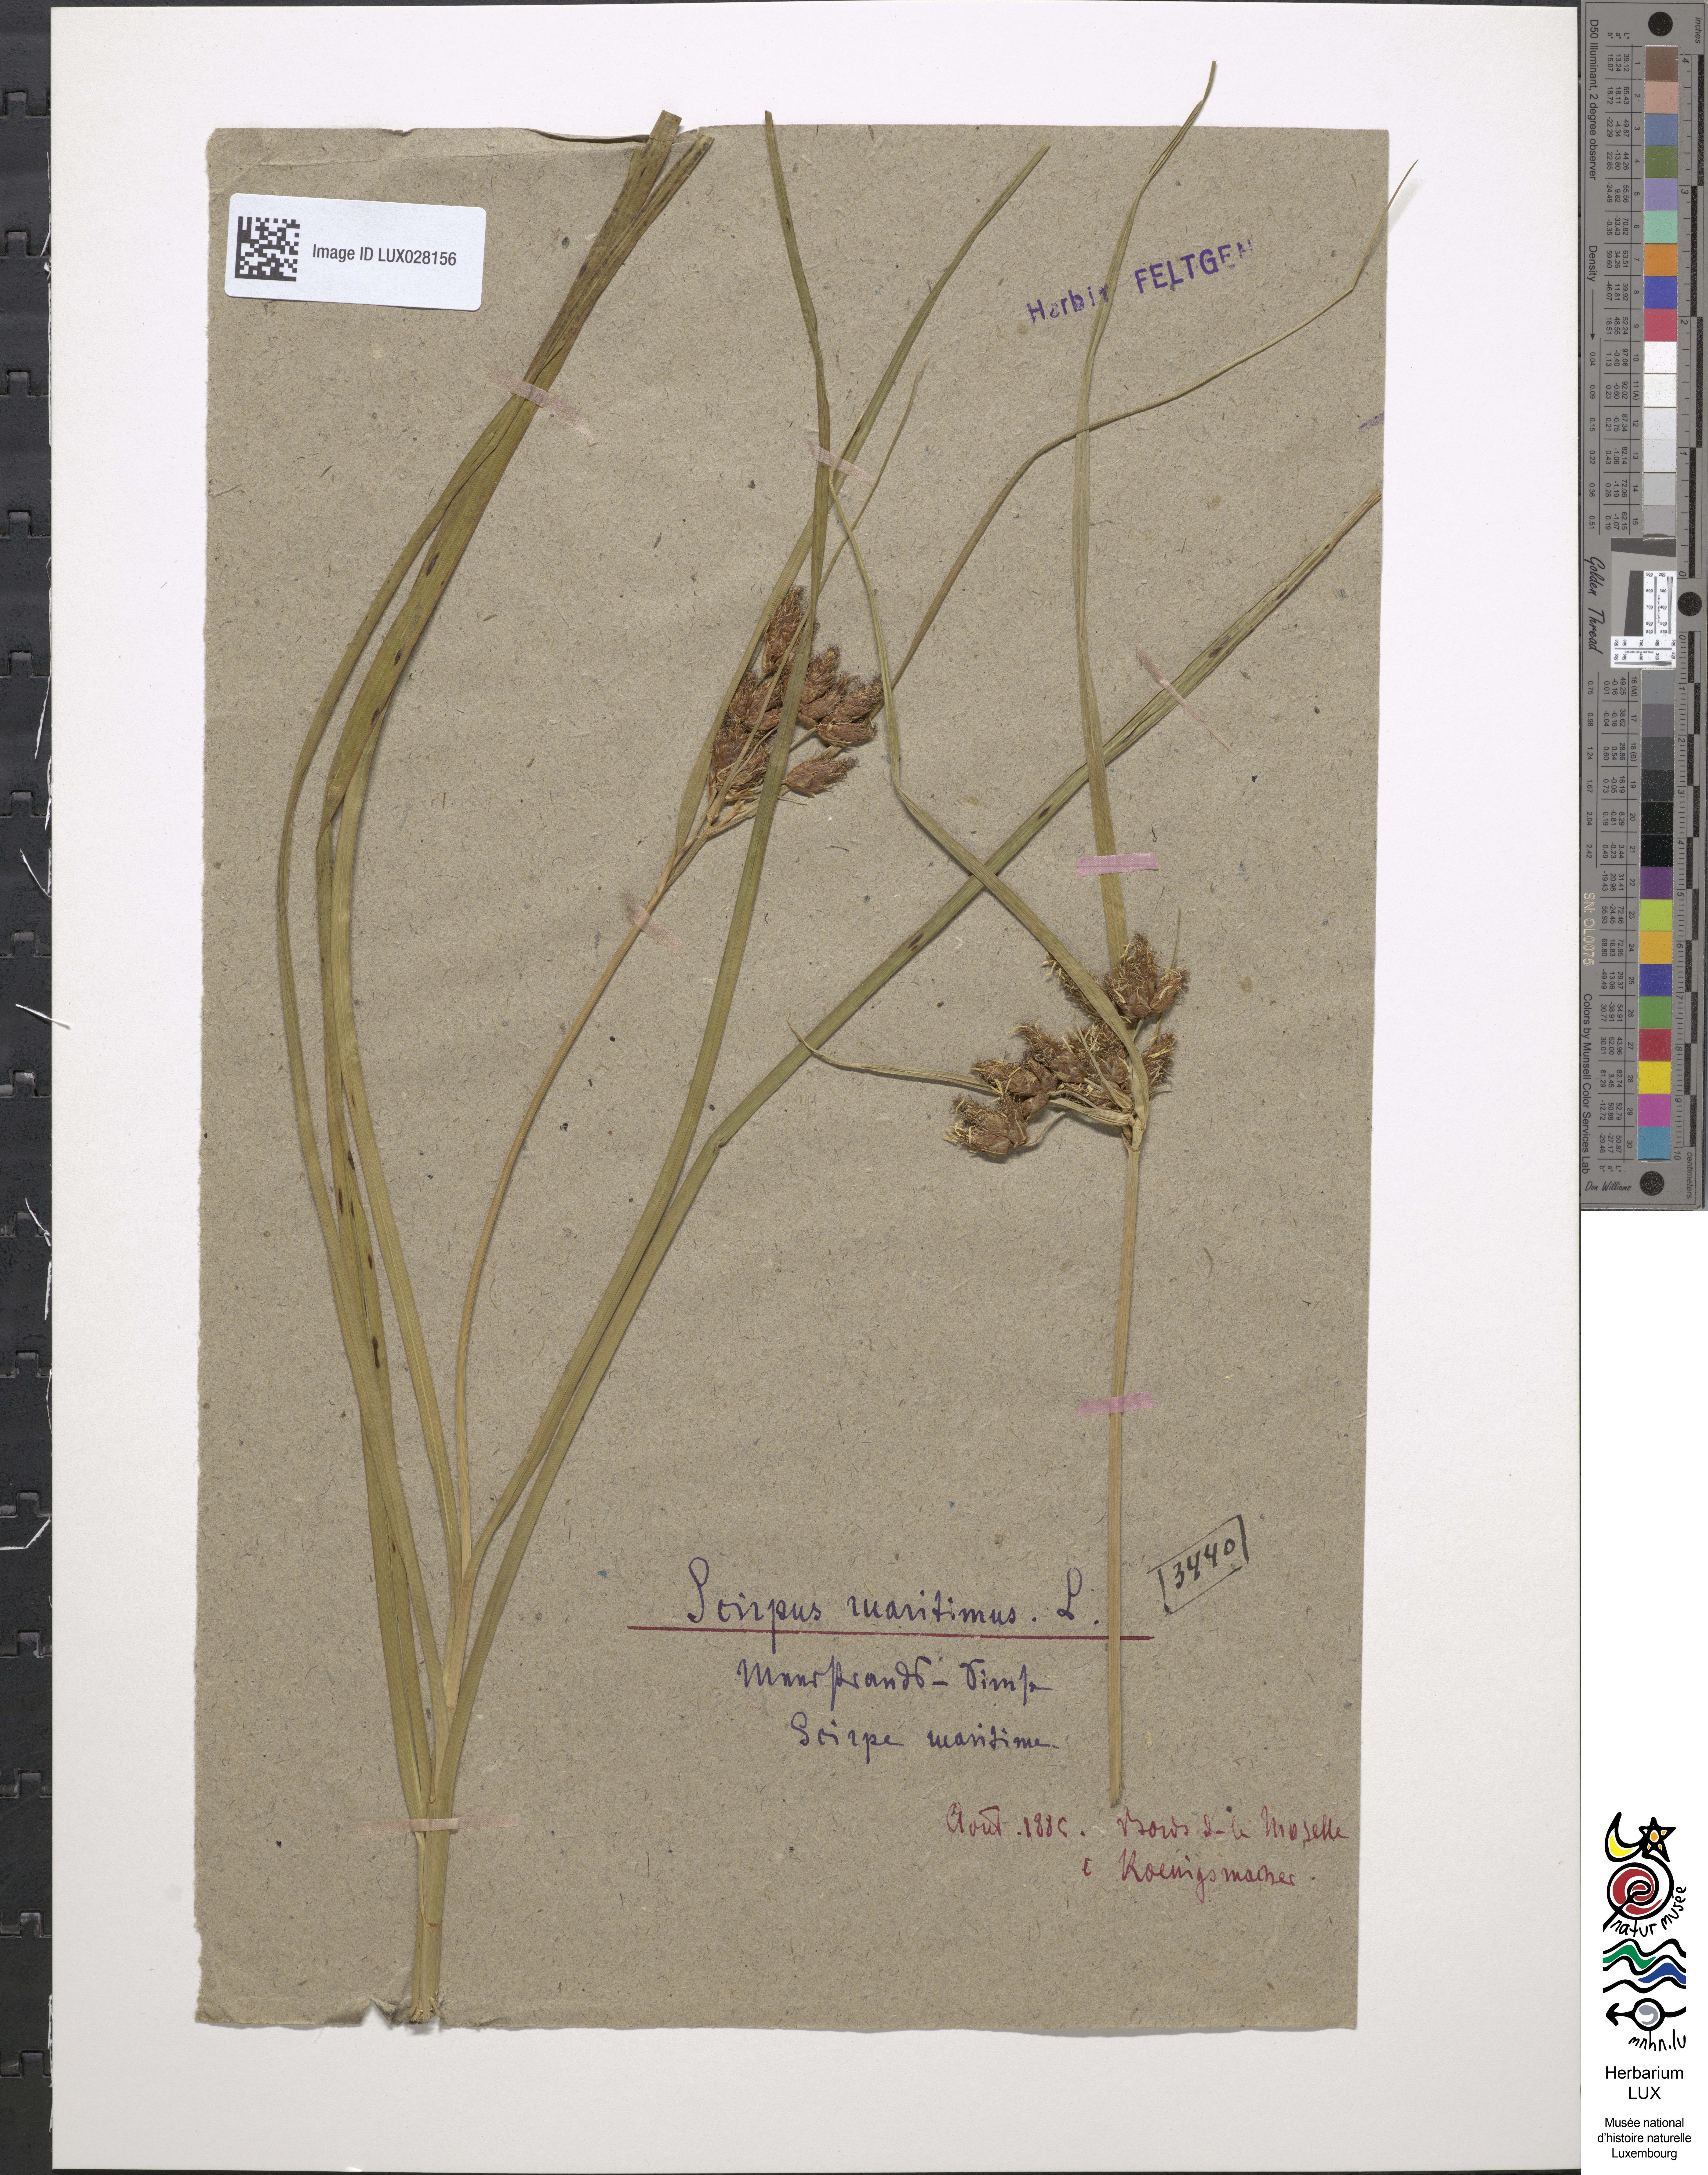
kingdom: Plantae
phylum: Tracheophyta
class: Liliopsida
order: Poales
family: Cyperaceae
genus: Bolboschoenus
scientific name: Bolboschoenus maritimus
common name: Sea club-rush
